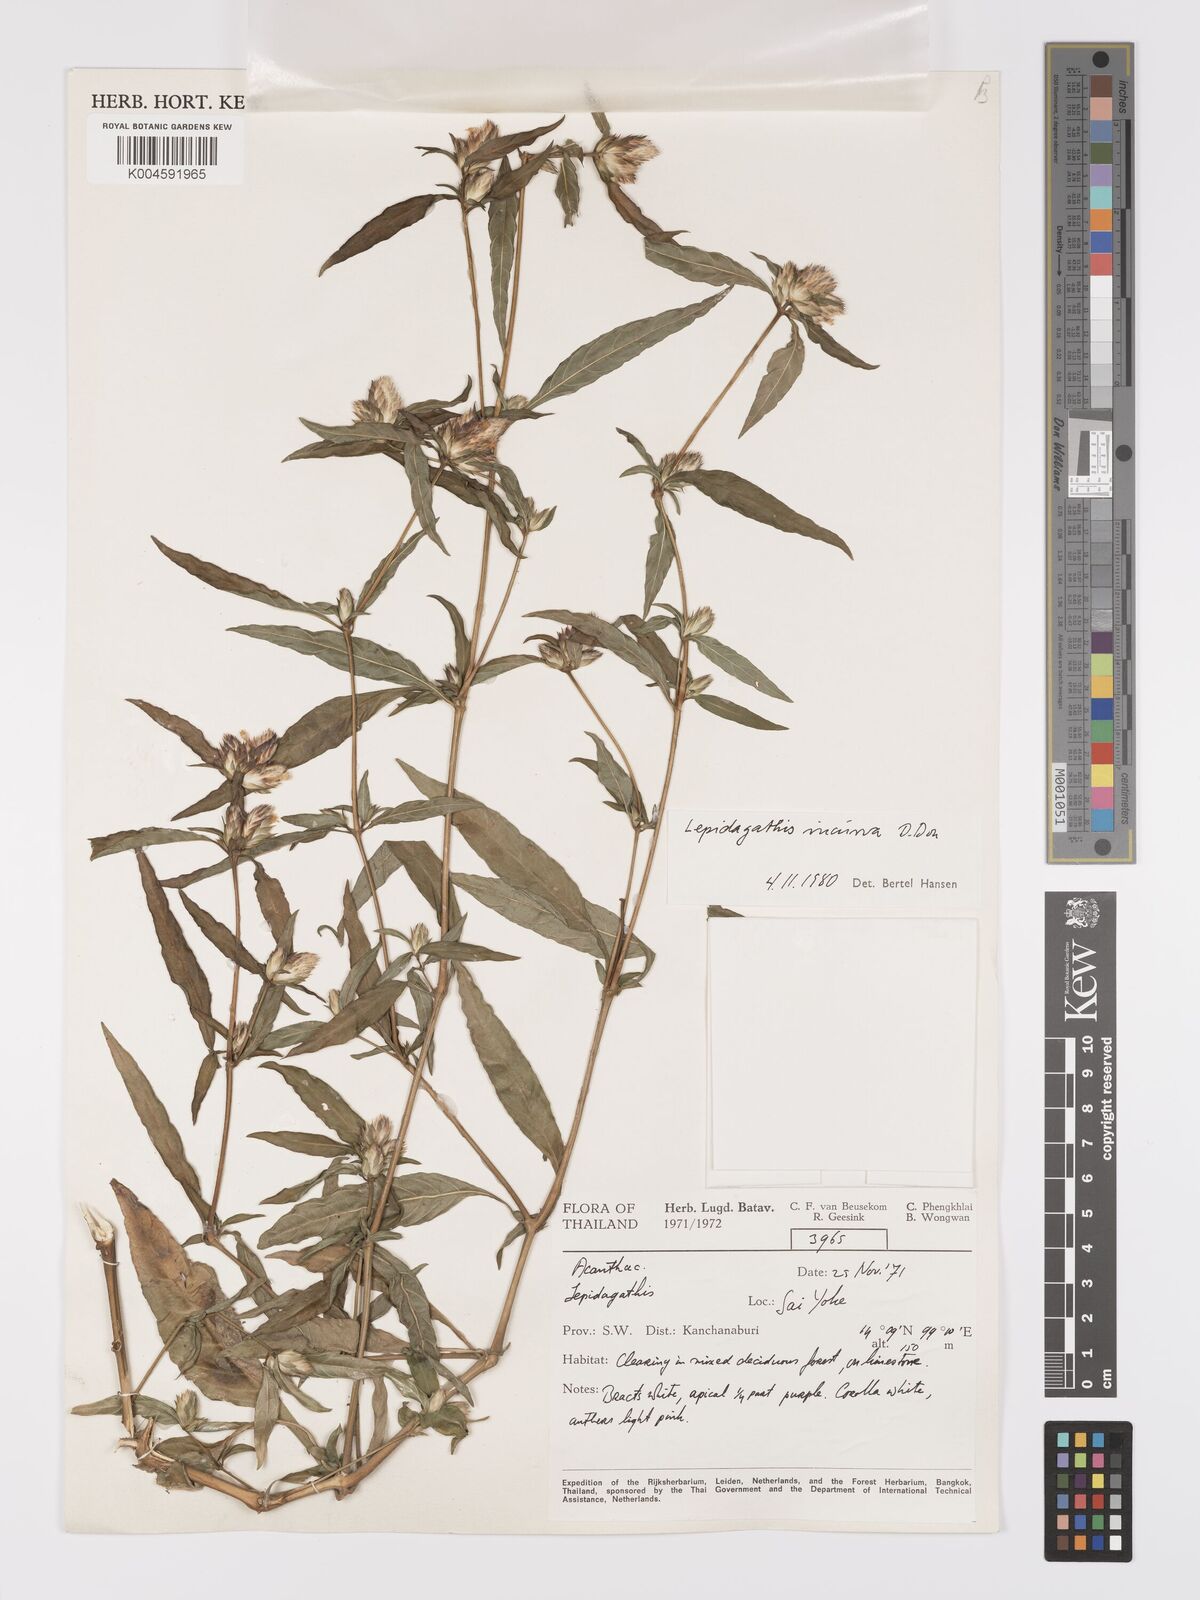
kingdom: Plantae
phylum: Tracheophyta
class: Magnoliopsida
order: Lamiales
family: Acanthaceae
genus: Lepidagathis
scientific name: Lepidagathis incurva
